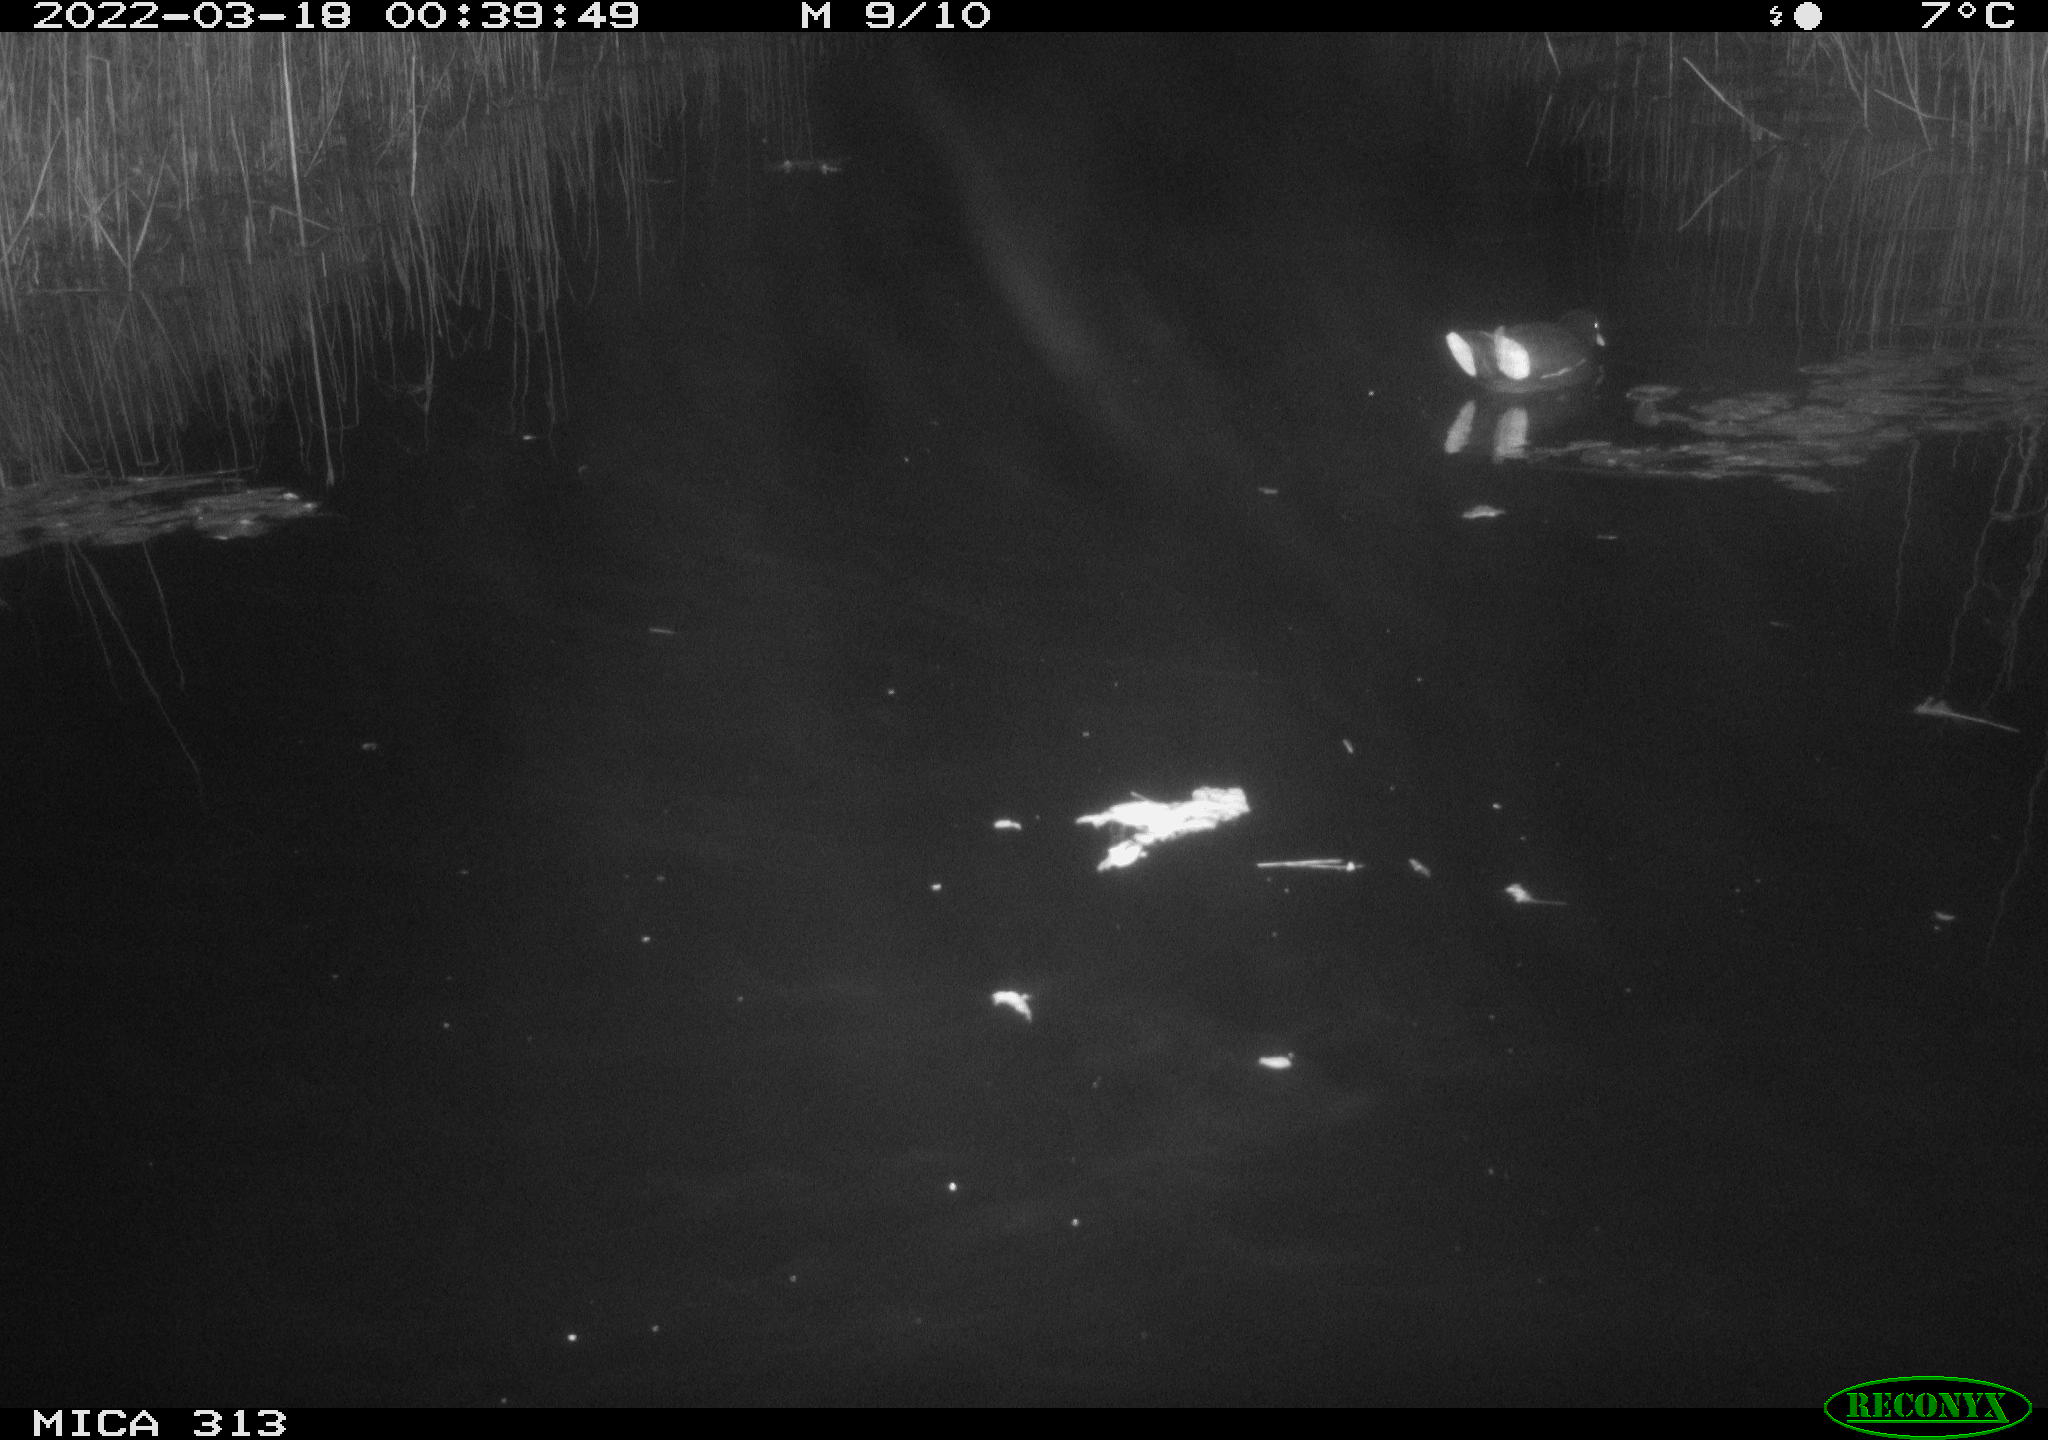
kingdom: Animalia
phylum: Chordata
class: Aves
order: Gruiformes
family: Rallidae
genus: Gallinula
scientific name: Gallinula chloropus
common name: Common moorhen
